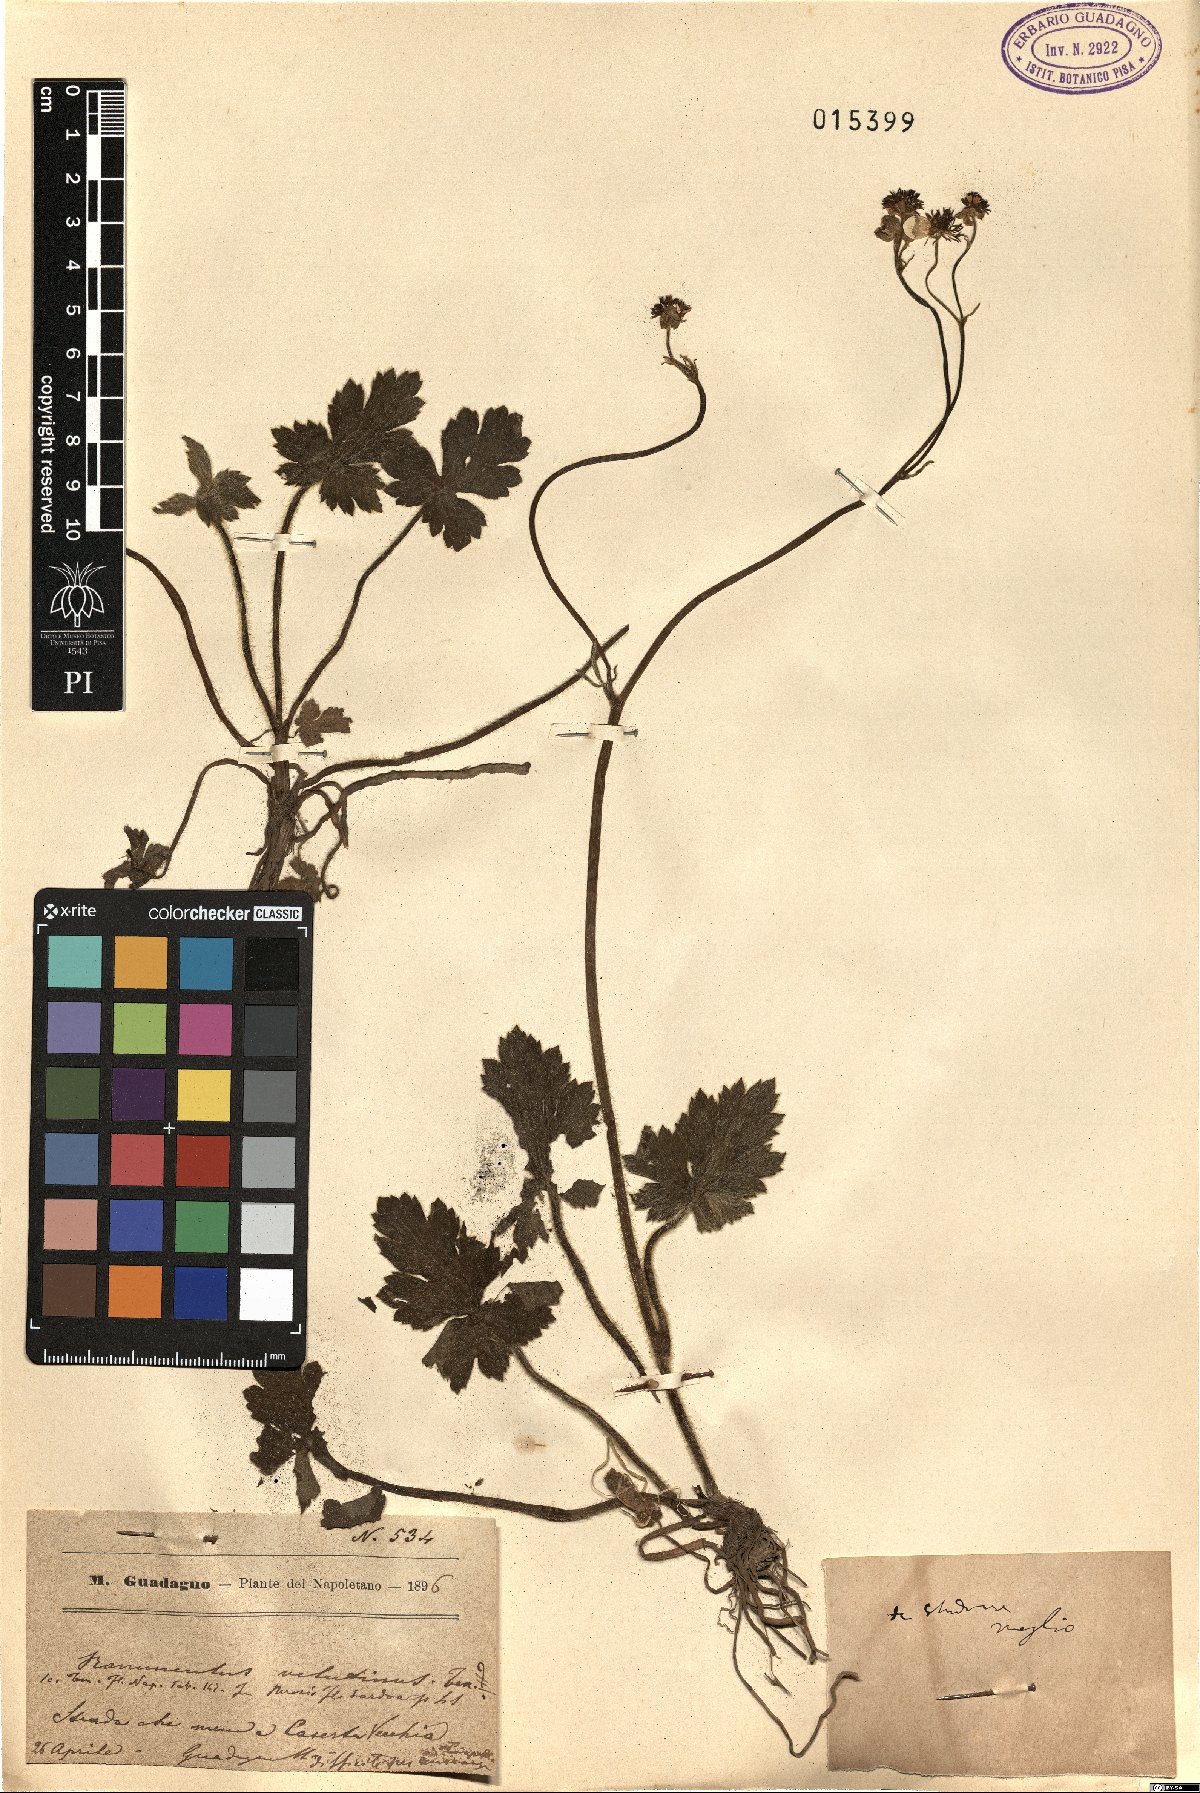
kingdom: Plantae
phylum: Tracheophyta
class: Magnoliopsida
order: Ranunculales
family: Ranunculaceae
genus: Ranunculus
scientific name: Ranunculus velutinus
